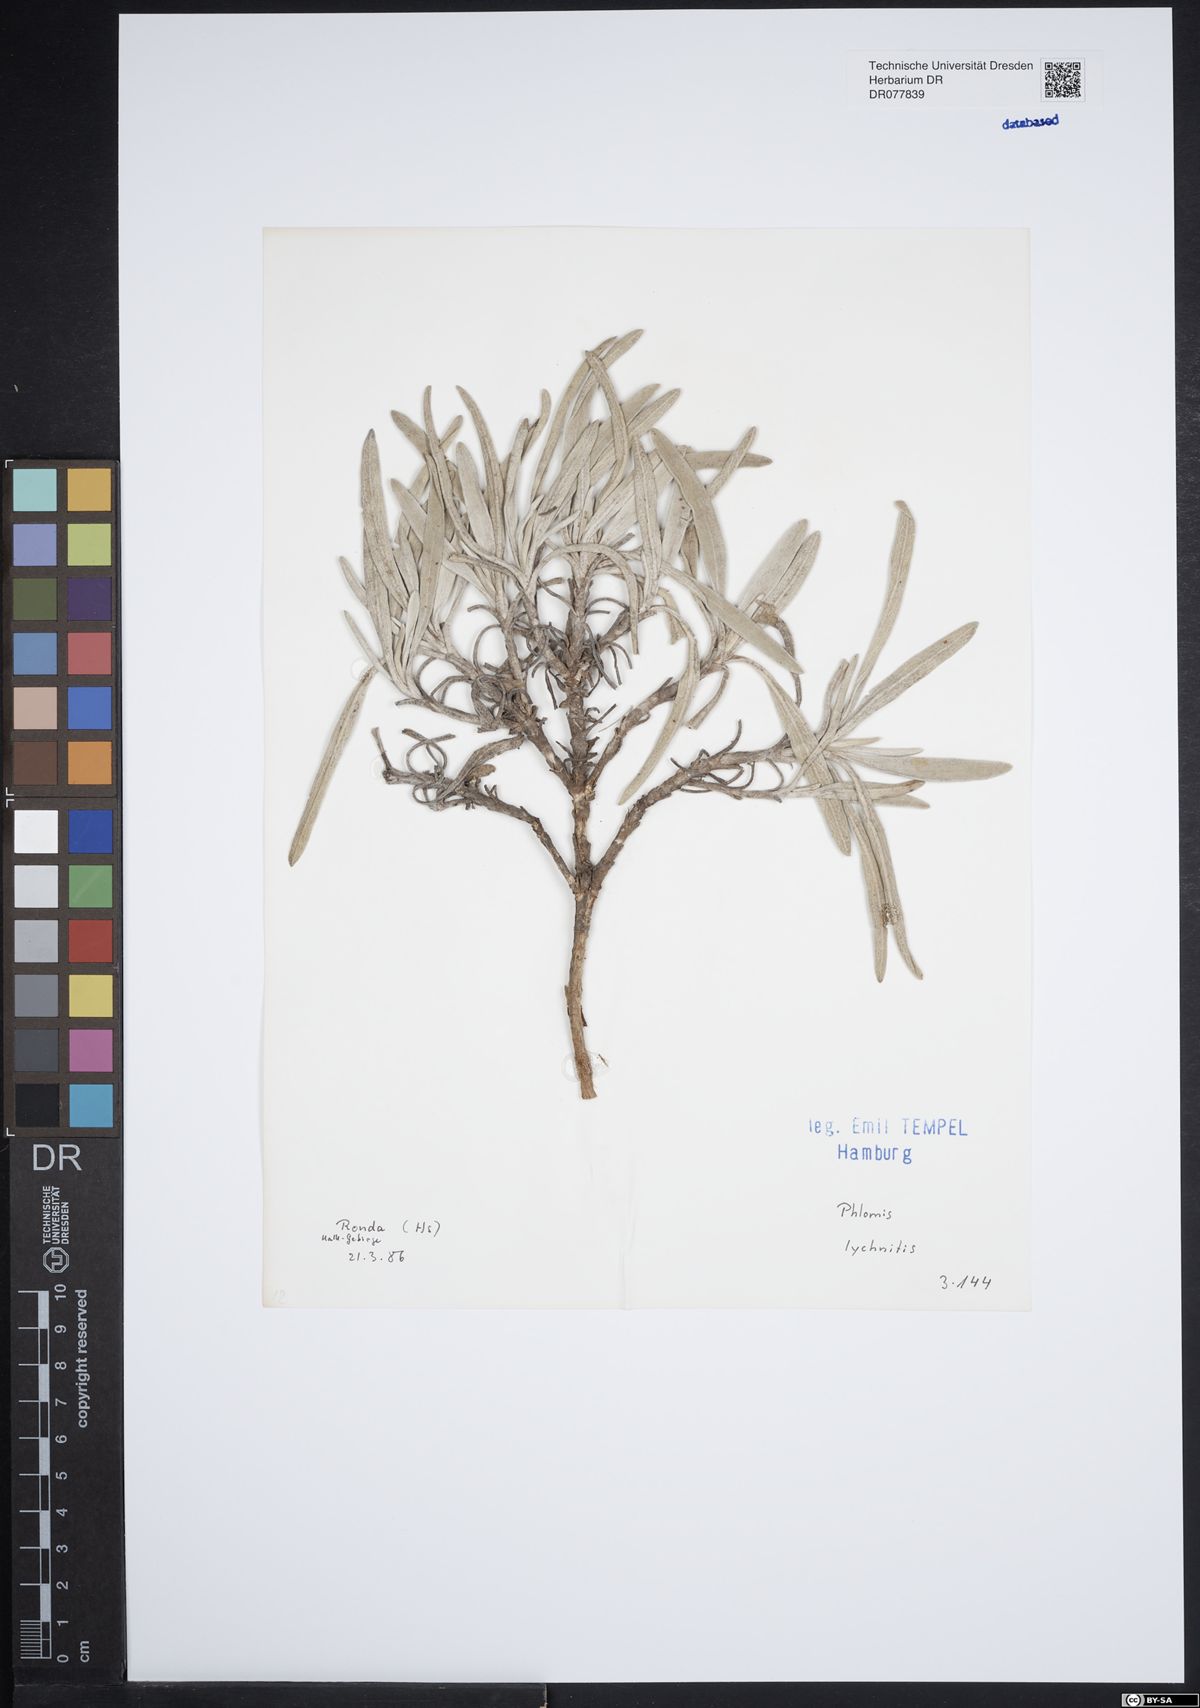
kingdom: Plantae
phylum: Tracheophyta
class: Magnoliopsida
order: Lamiales
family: Lamiaceae
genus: Phlomis
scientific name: Phlomis lychnitis
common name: Lampwickplant
